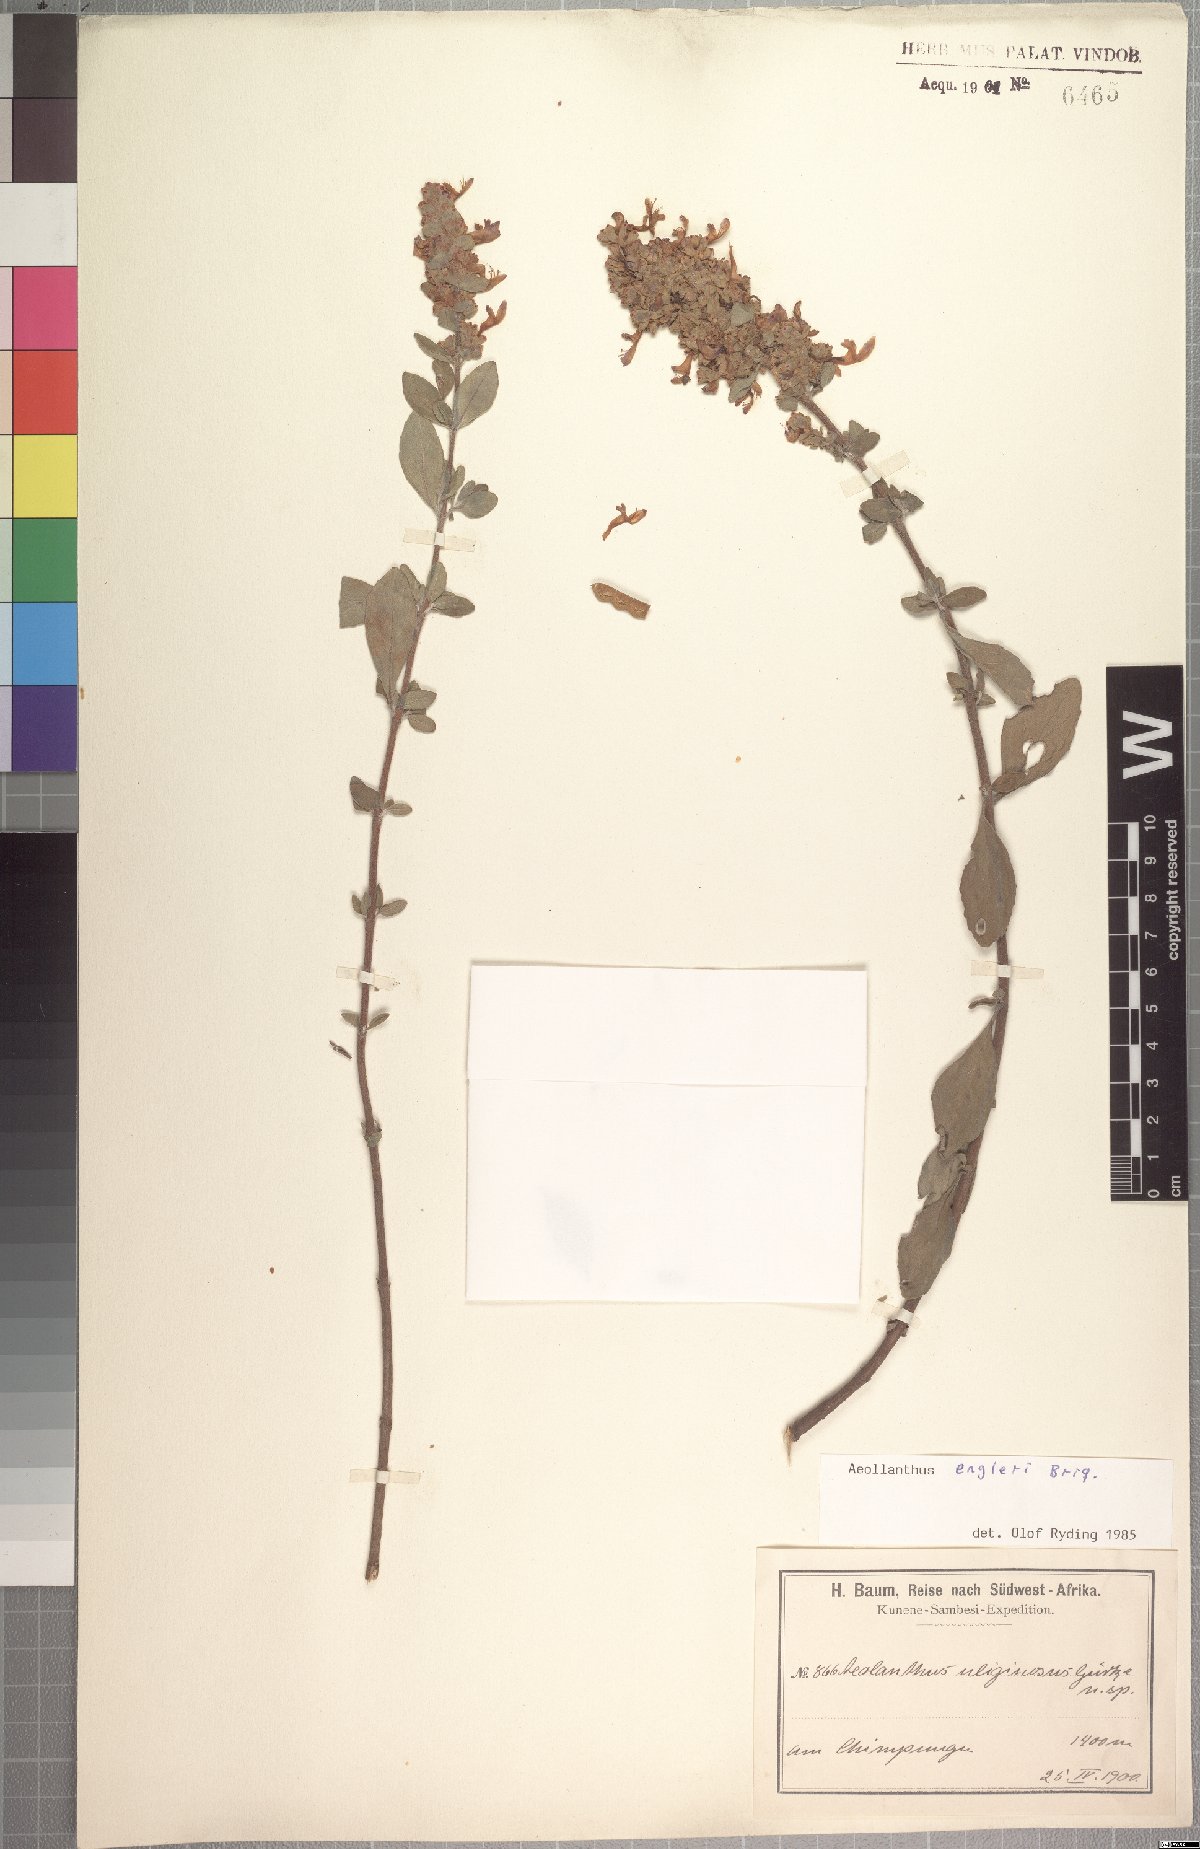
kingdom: Plantae
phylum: Tracheophyta
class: Magnoliopsida
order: Lamiales
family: Lamiaceae
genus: Aeollanthus
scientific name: Aeollanthus engleri
